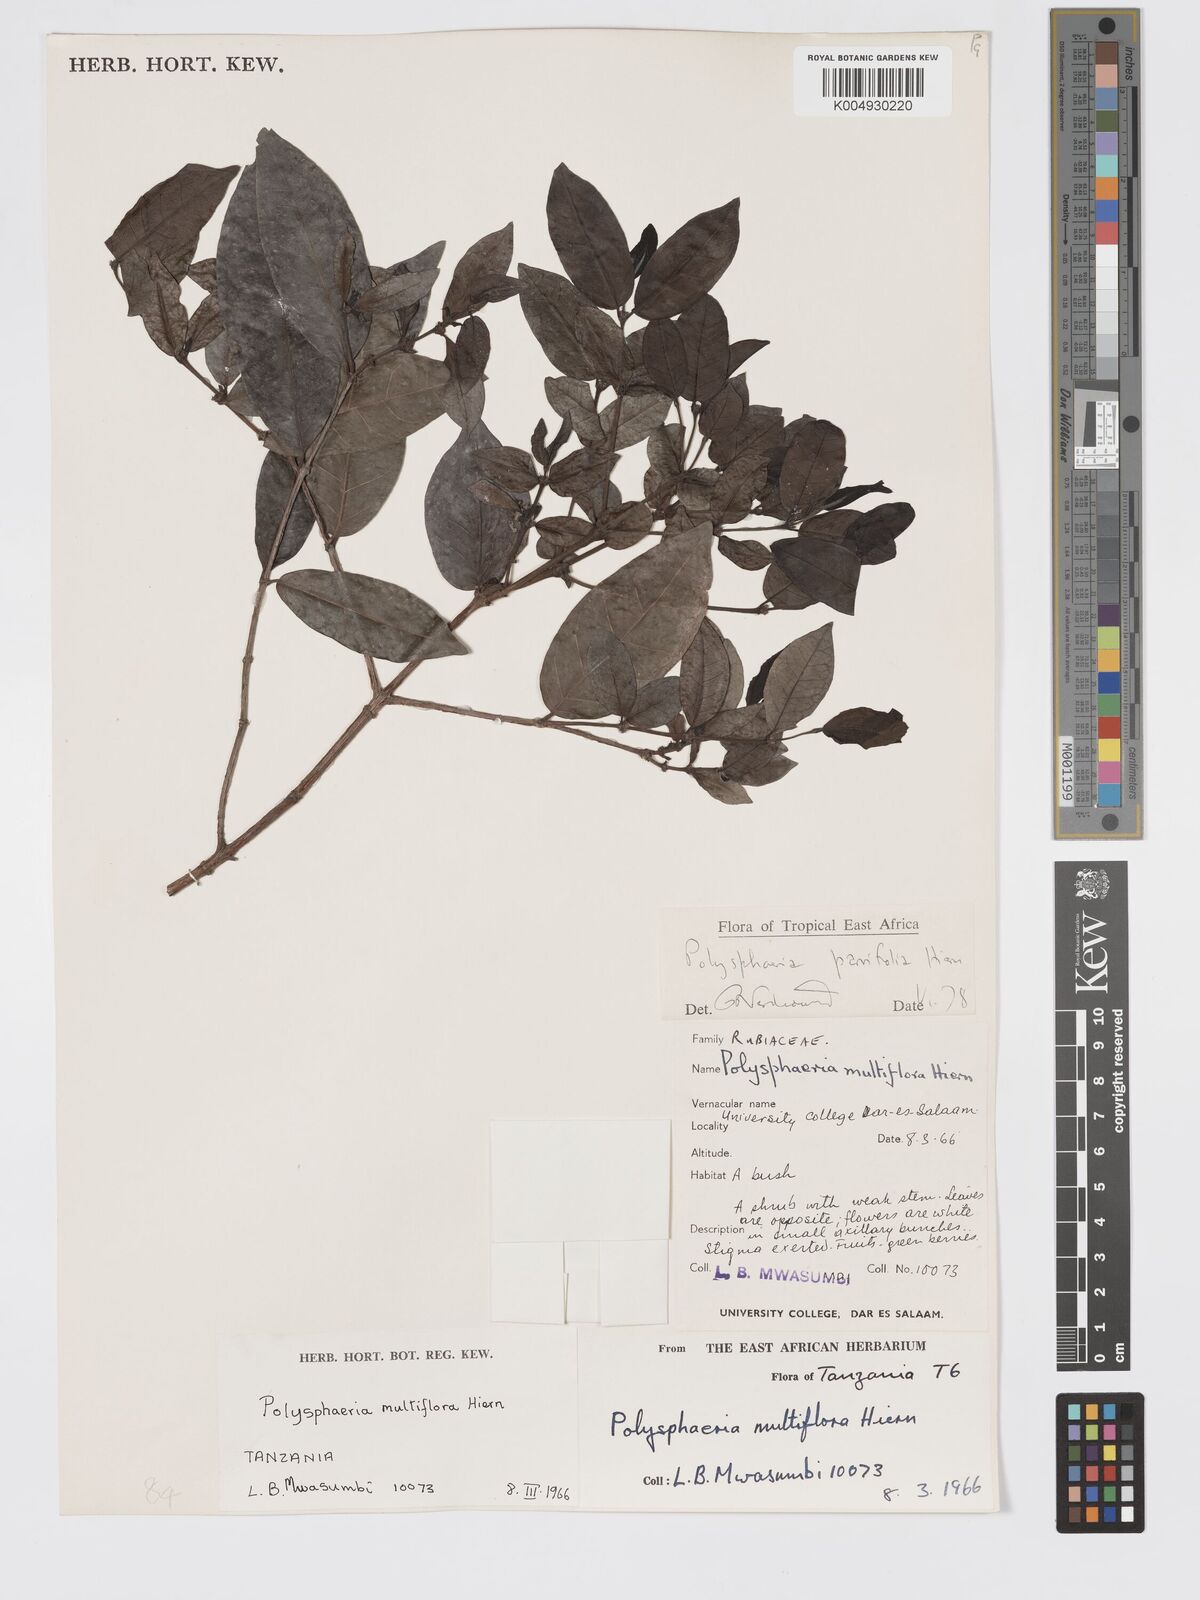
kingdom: Plantae
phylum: Tracheophyta
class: Magnoliopsida
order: Gentianales
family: Rubiaceae
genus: Polysphaeria
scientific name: Polysphaeria parvifolia
